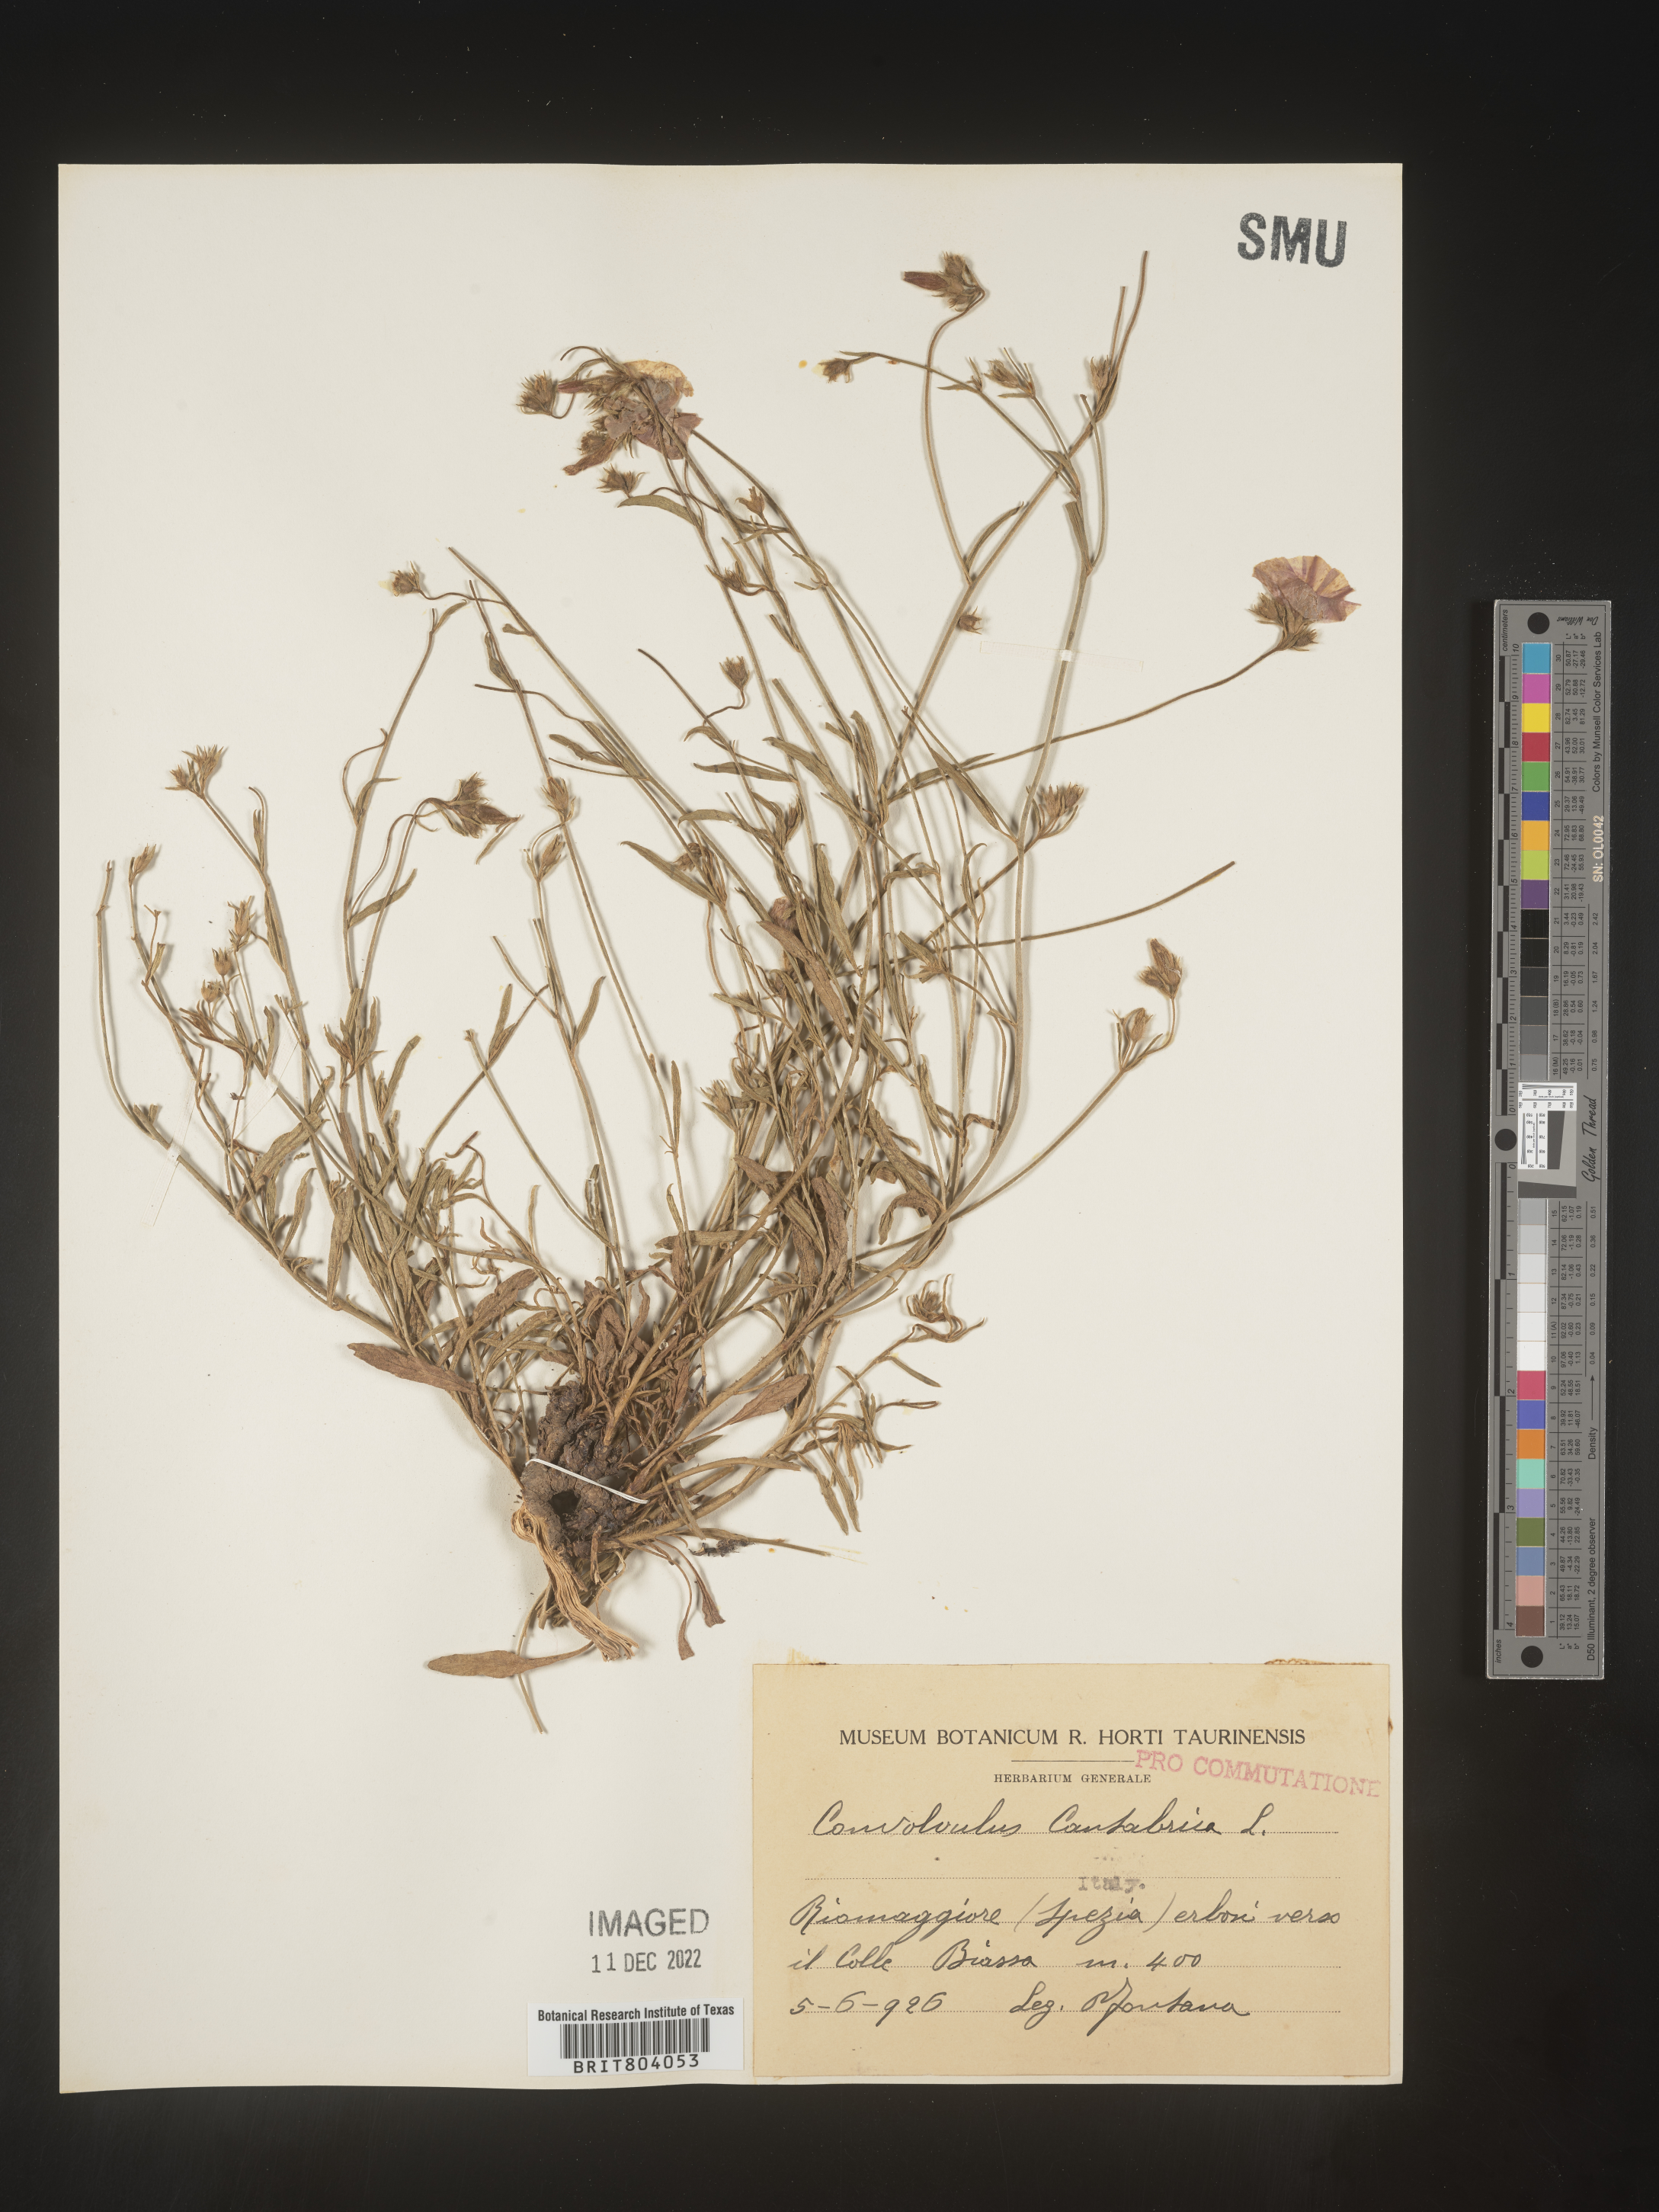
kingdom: Plantae
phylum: Tracheophyta
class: Magnoliopsida
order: Solanales
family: Convolvulaceae
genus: Convolvulus
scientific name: Convolvulus
